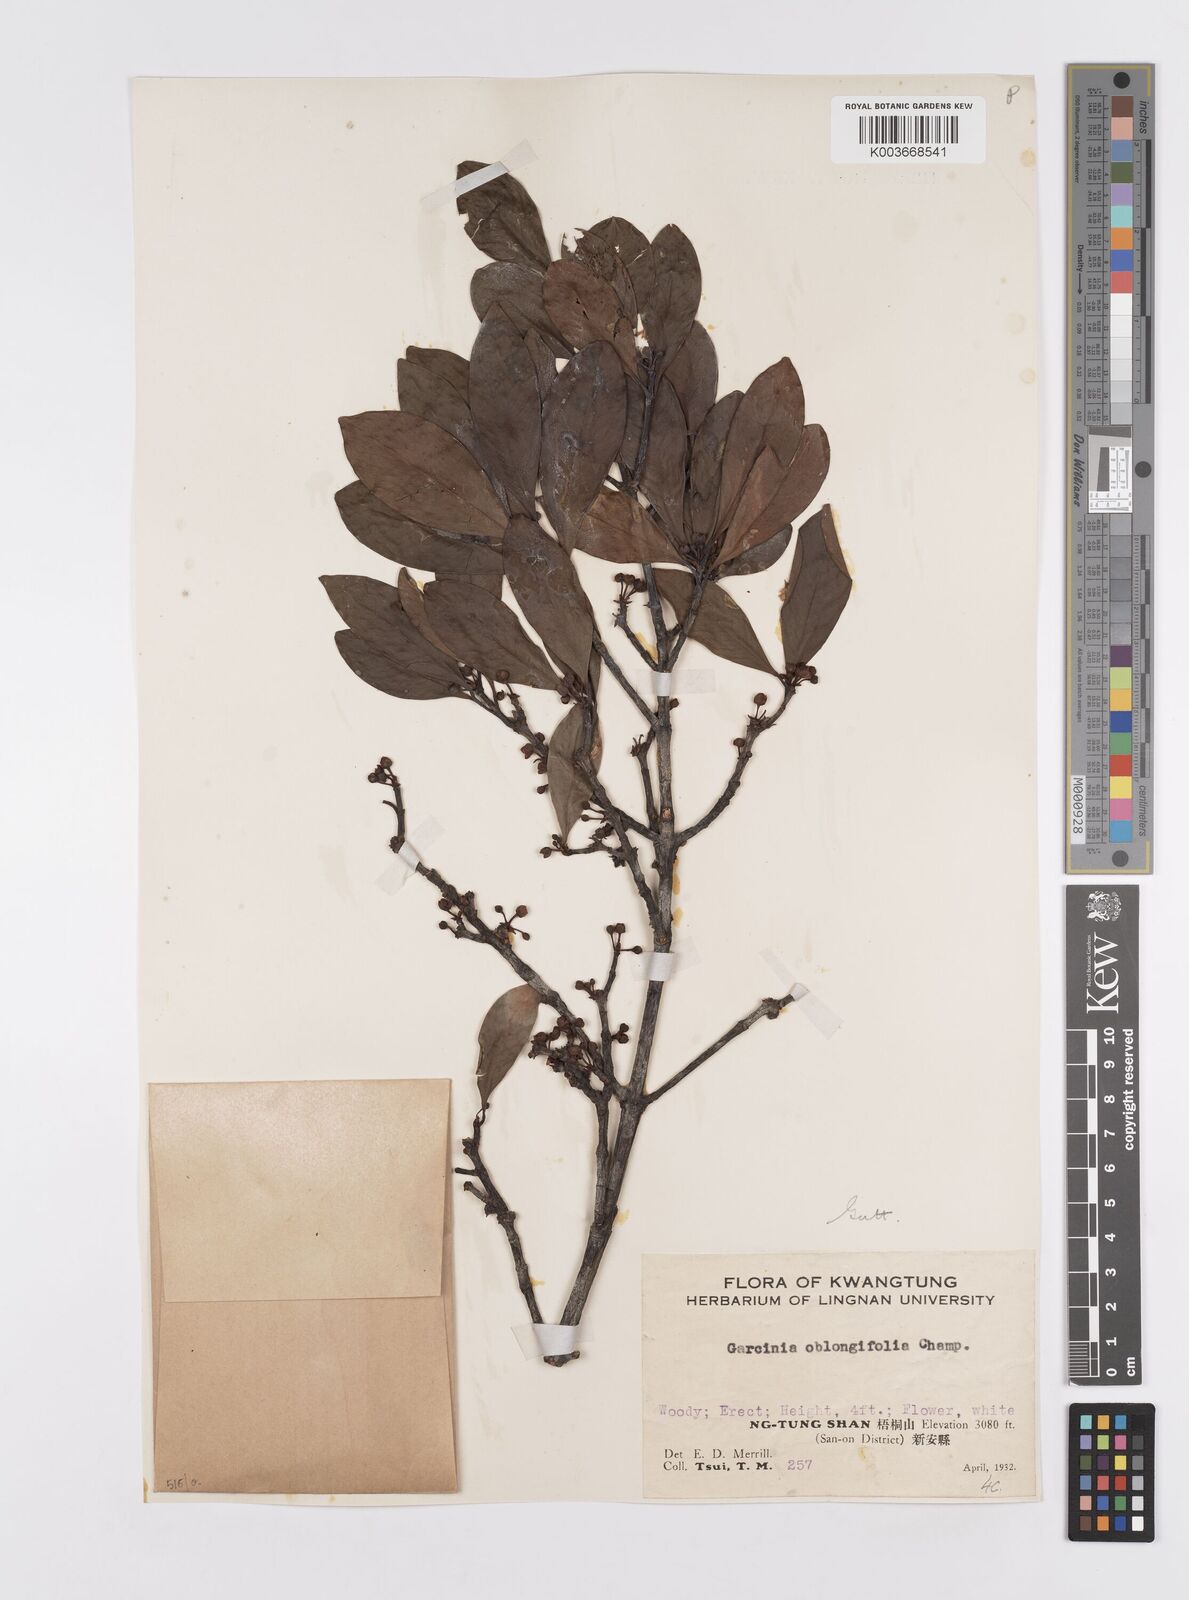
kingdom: Plantae
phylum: Tracheophyta
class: Magnoliopsida
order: Malpighiales
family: Clusiaceae
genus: Garcinia
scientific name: Garcinia oblongifolia
